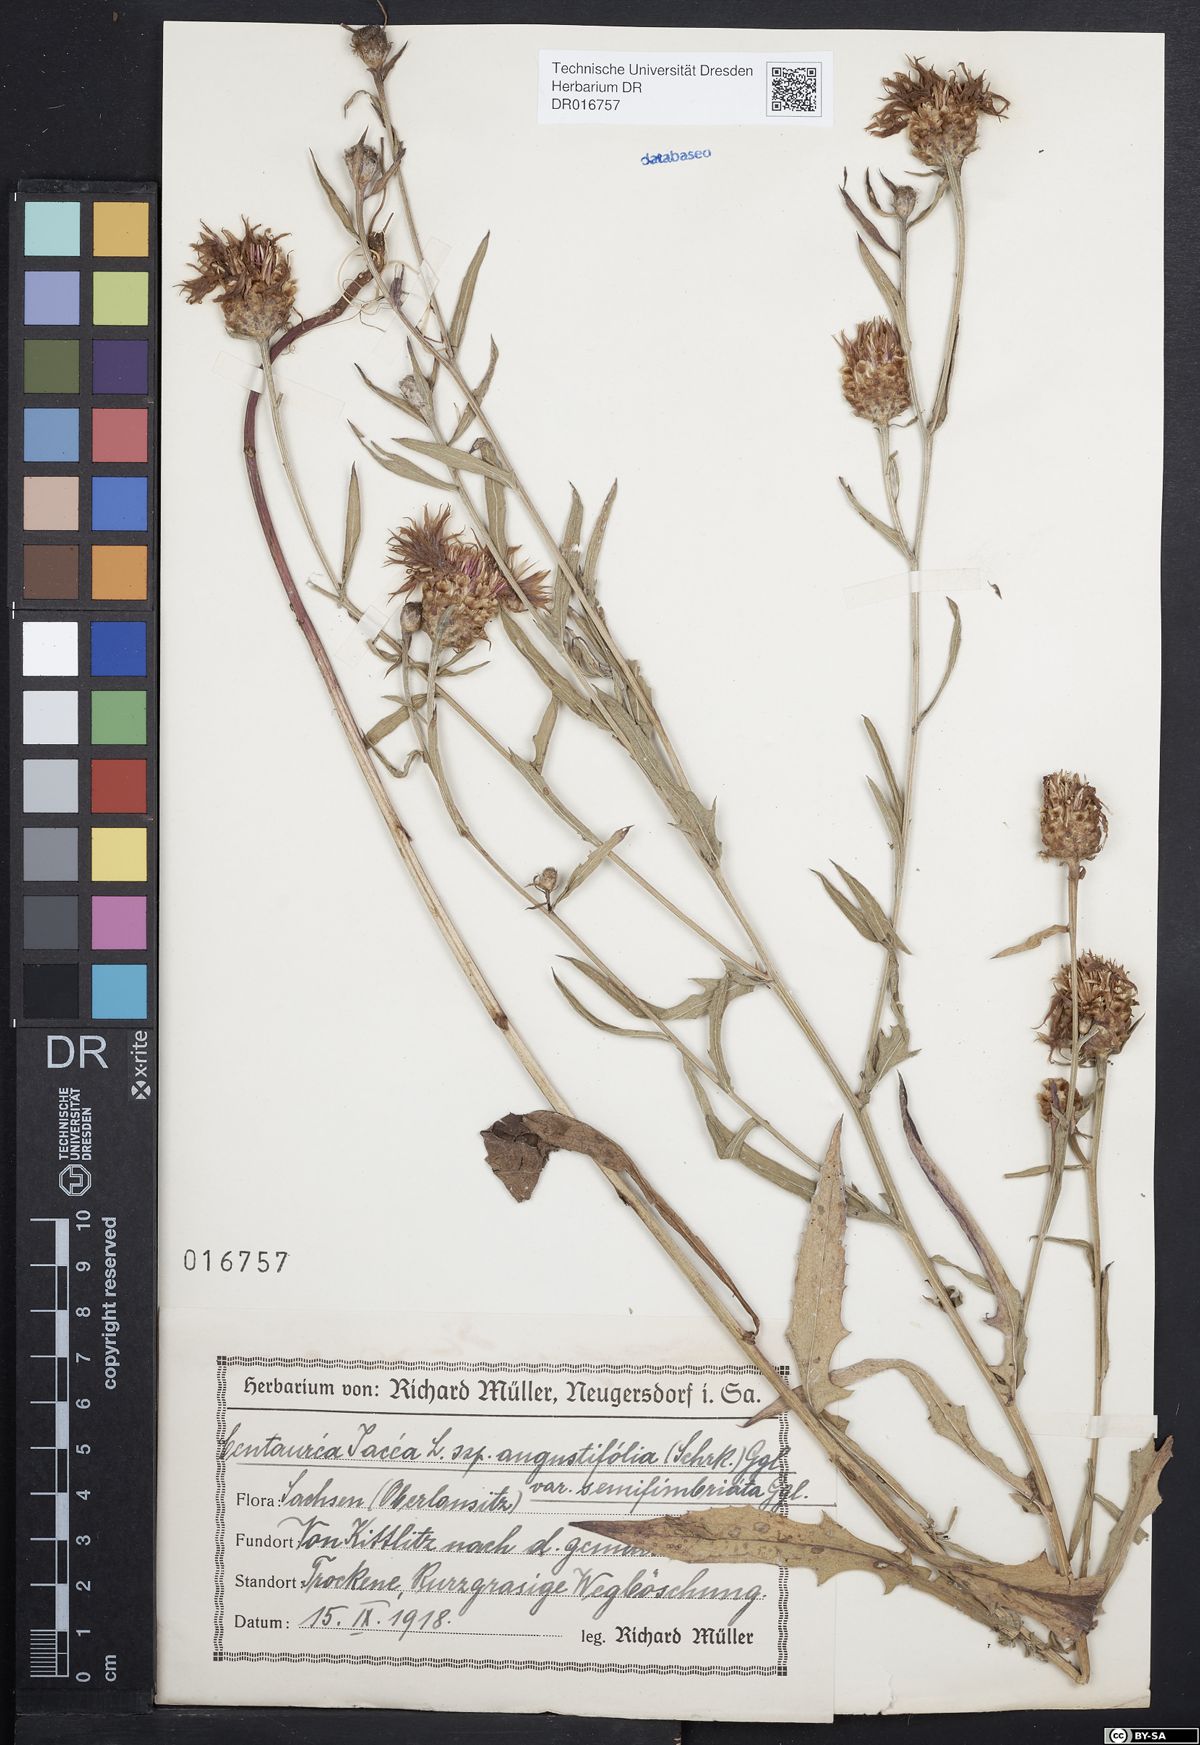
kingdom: Plantae
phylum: Tracheophyta
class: Magnoliopsida
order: Asterales
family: Asteraceae
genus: Centaurea
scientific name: Centaurea pannonica
